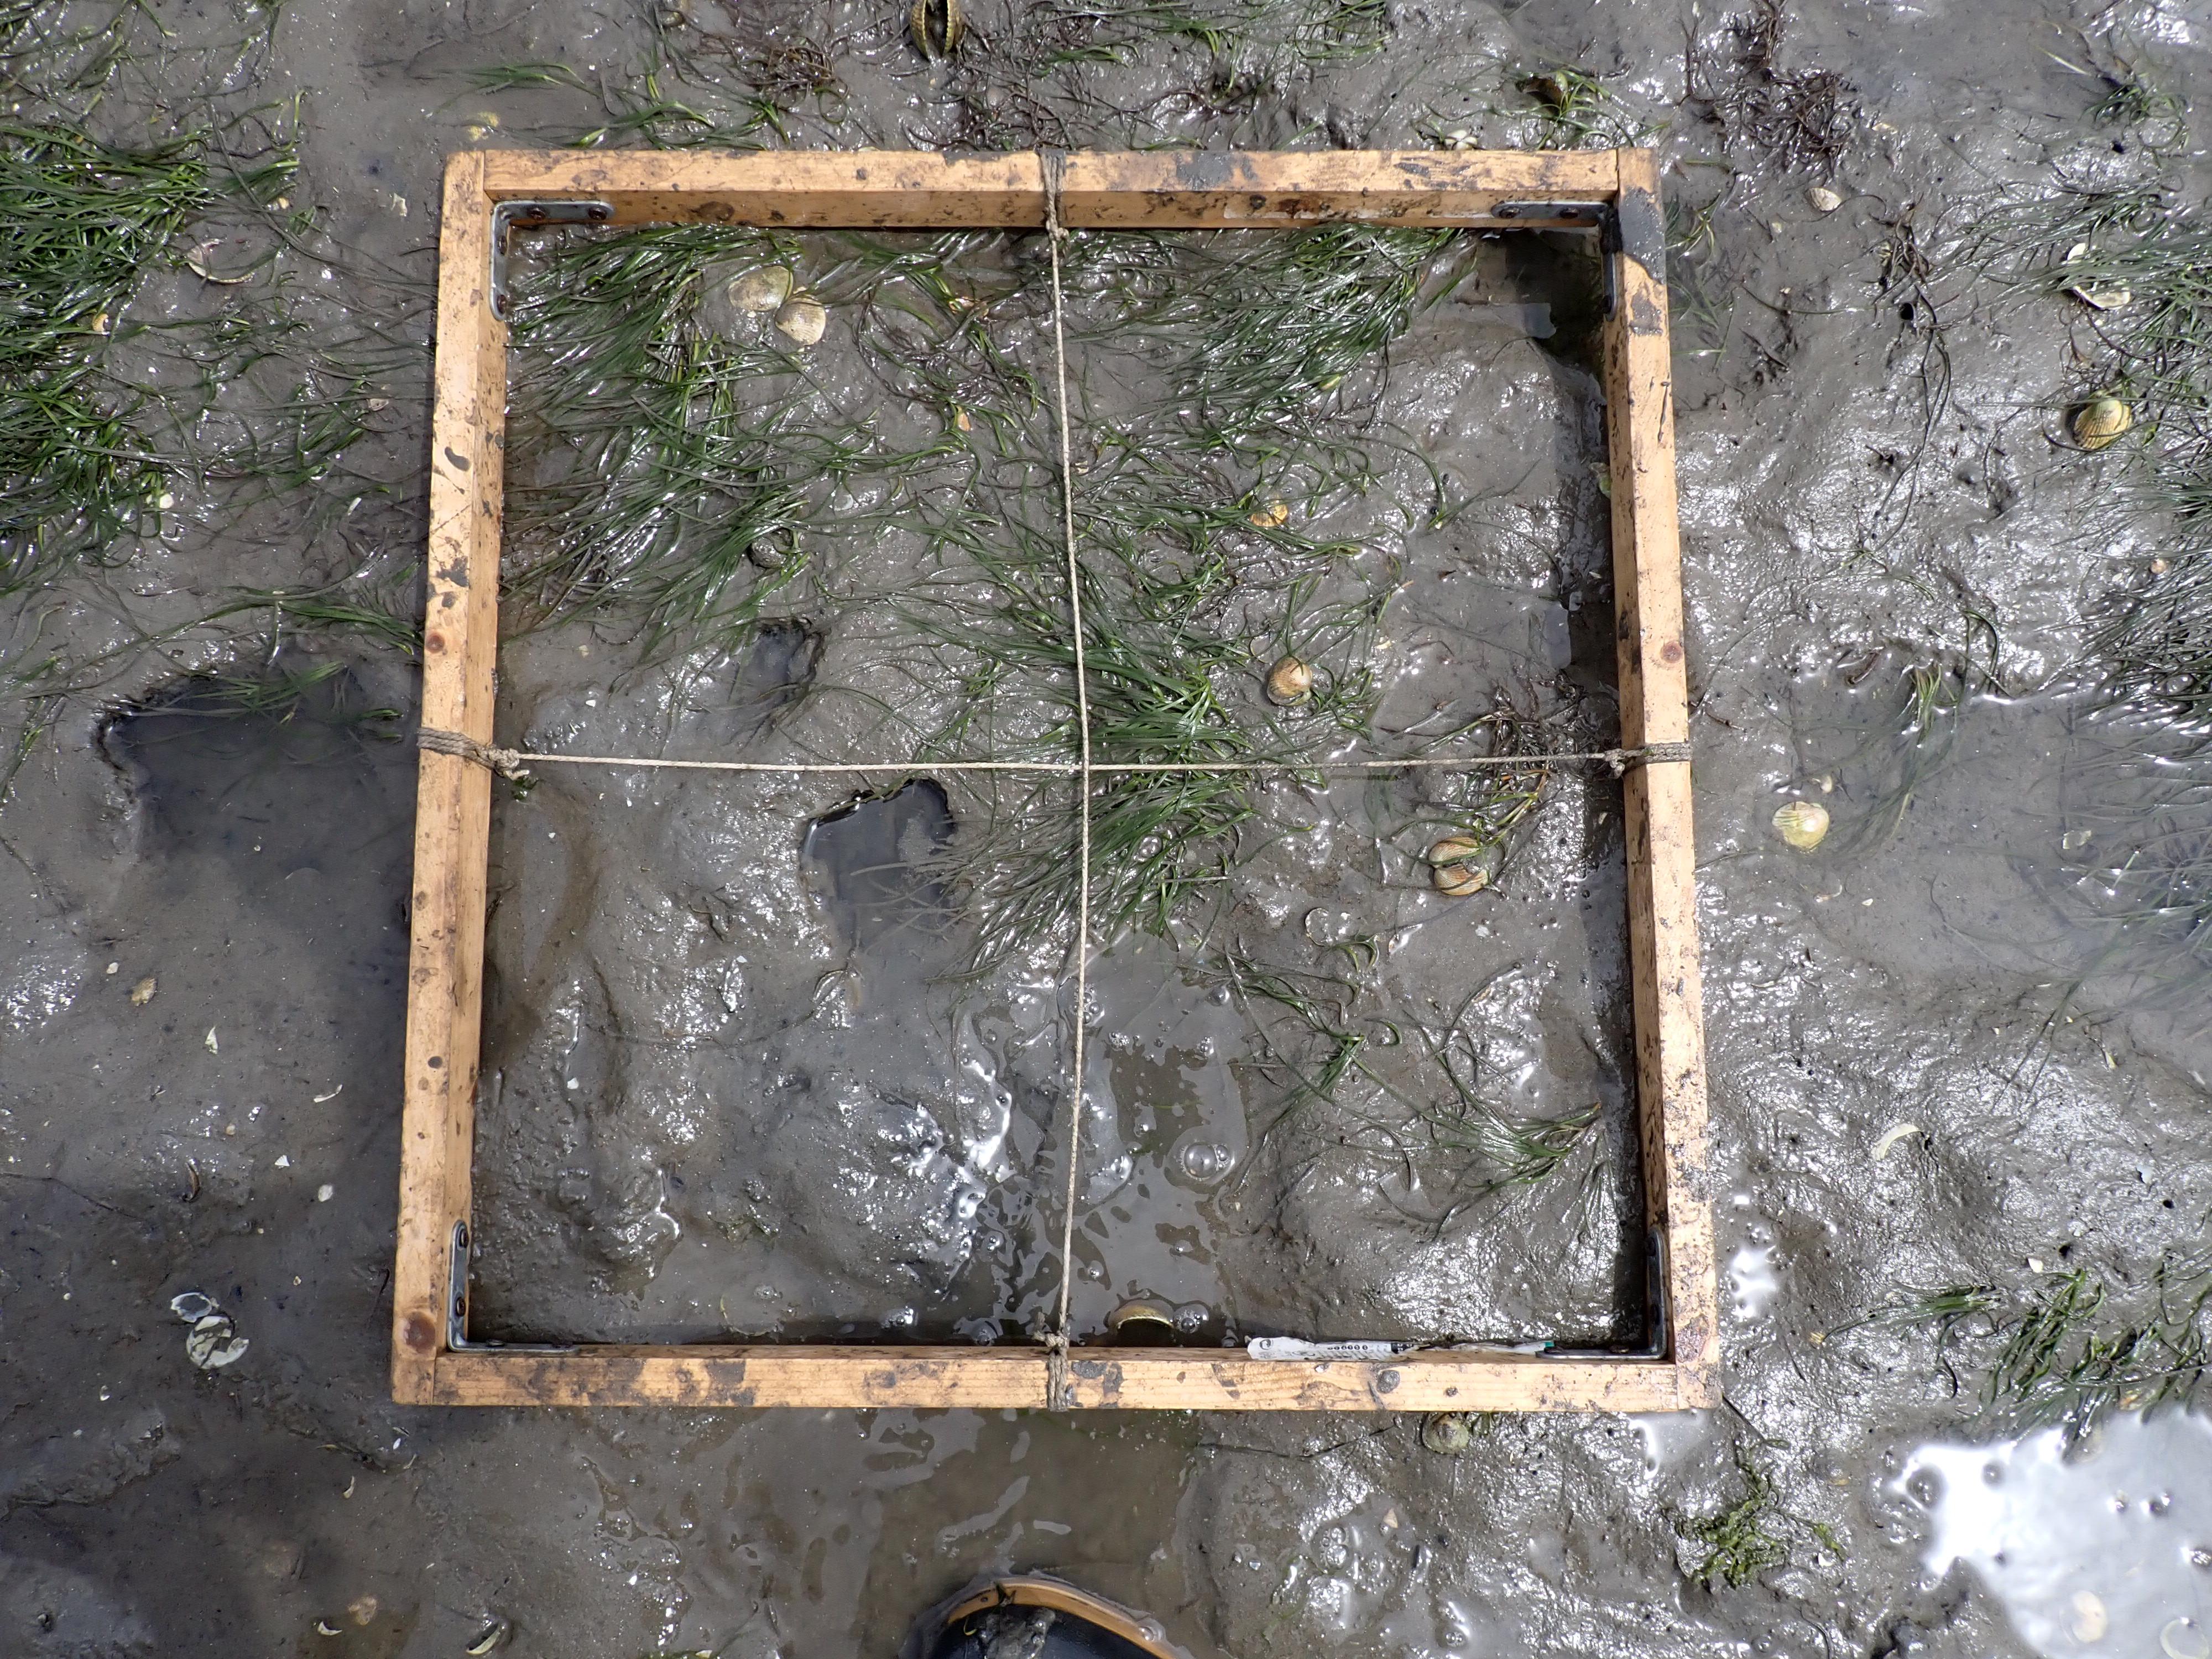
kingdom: Plantae
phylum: Tracheophyta
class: Liliopsida
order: Alismatales
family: Zosteraceae
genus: Zostera
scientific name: Zostera noltii
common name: Dwarf eelgrass
